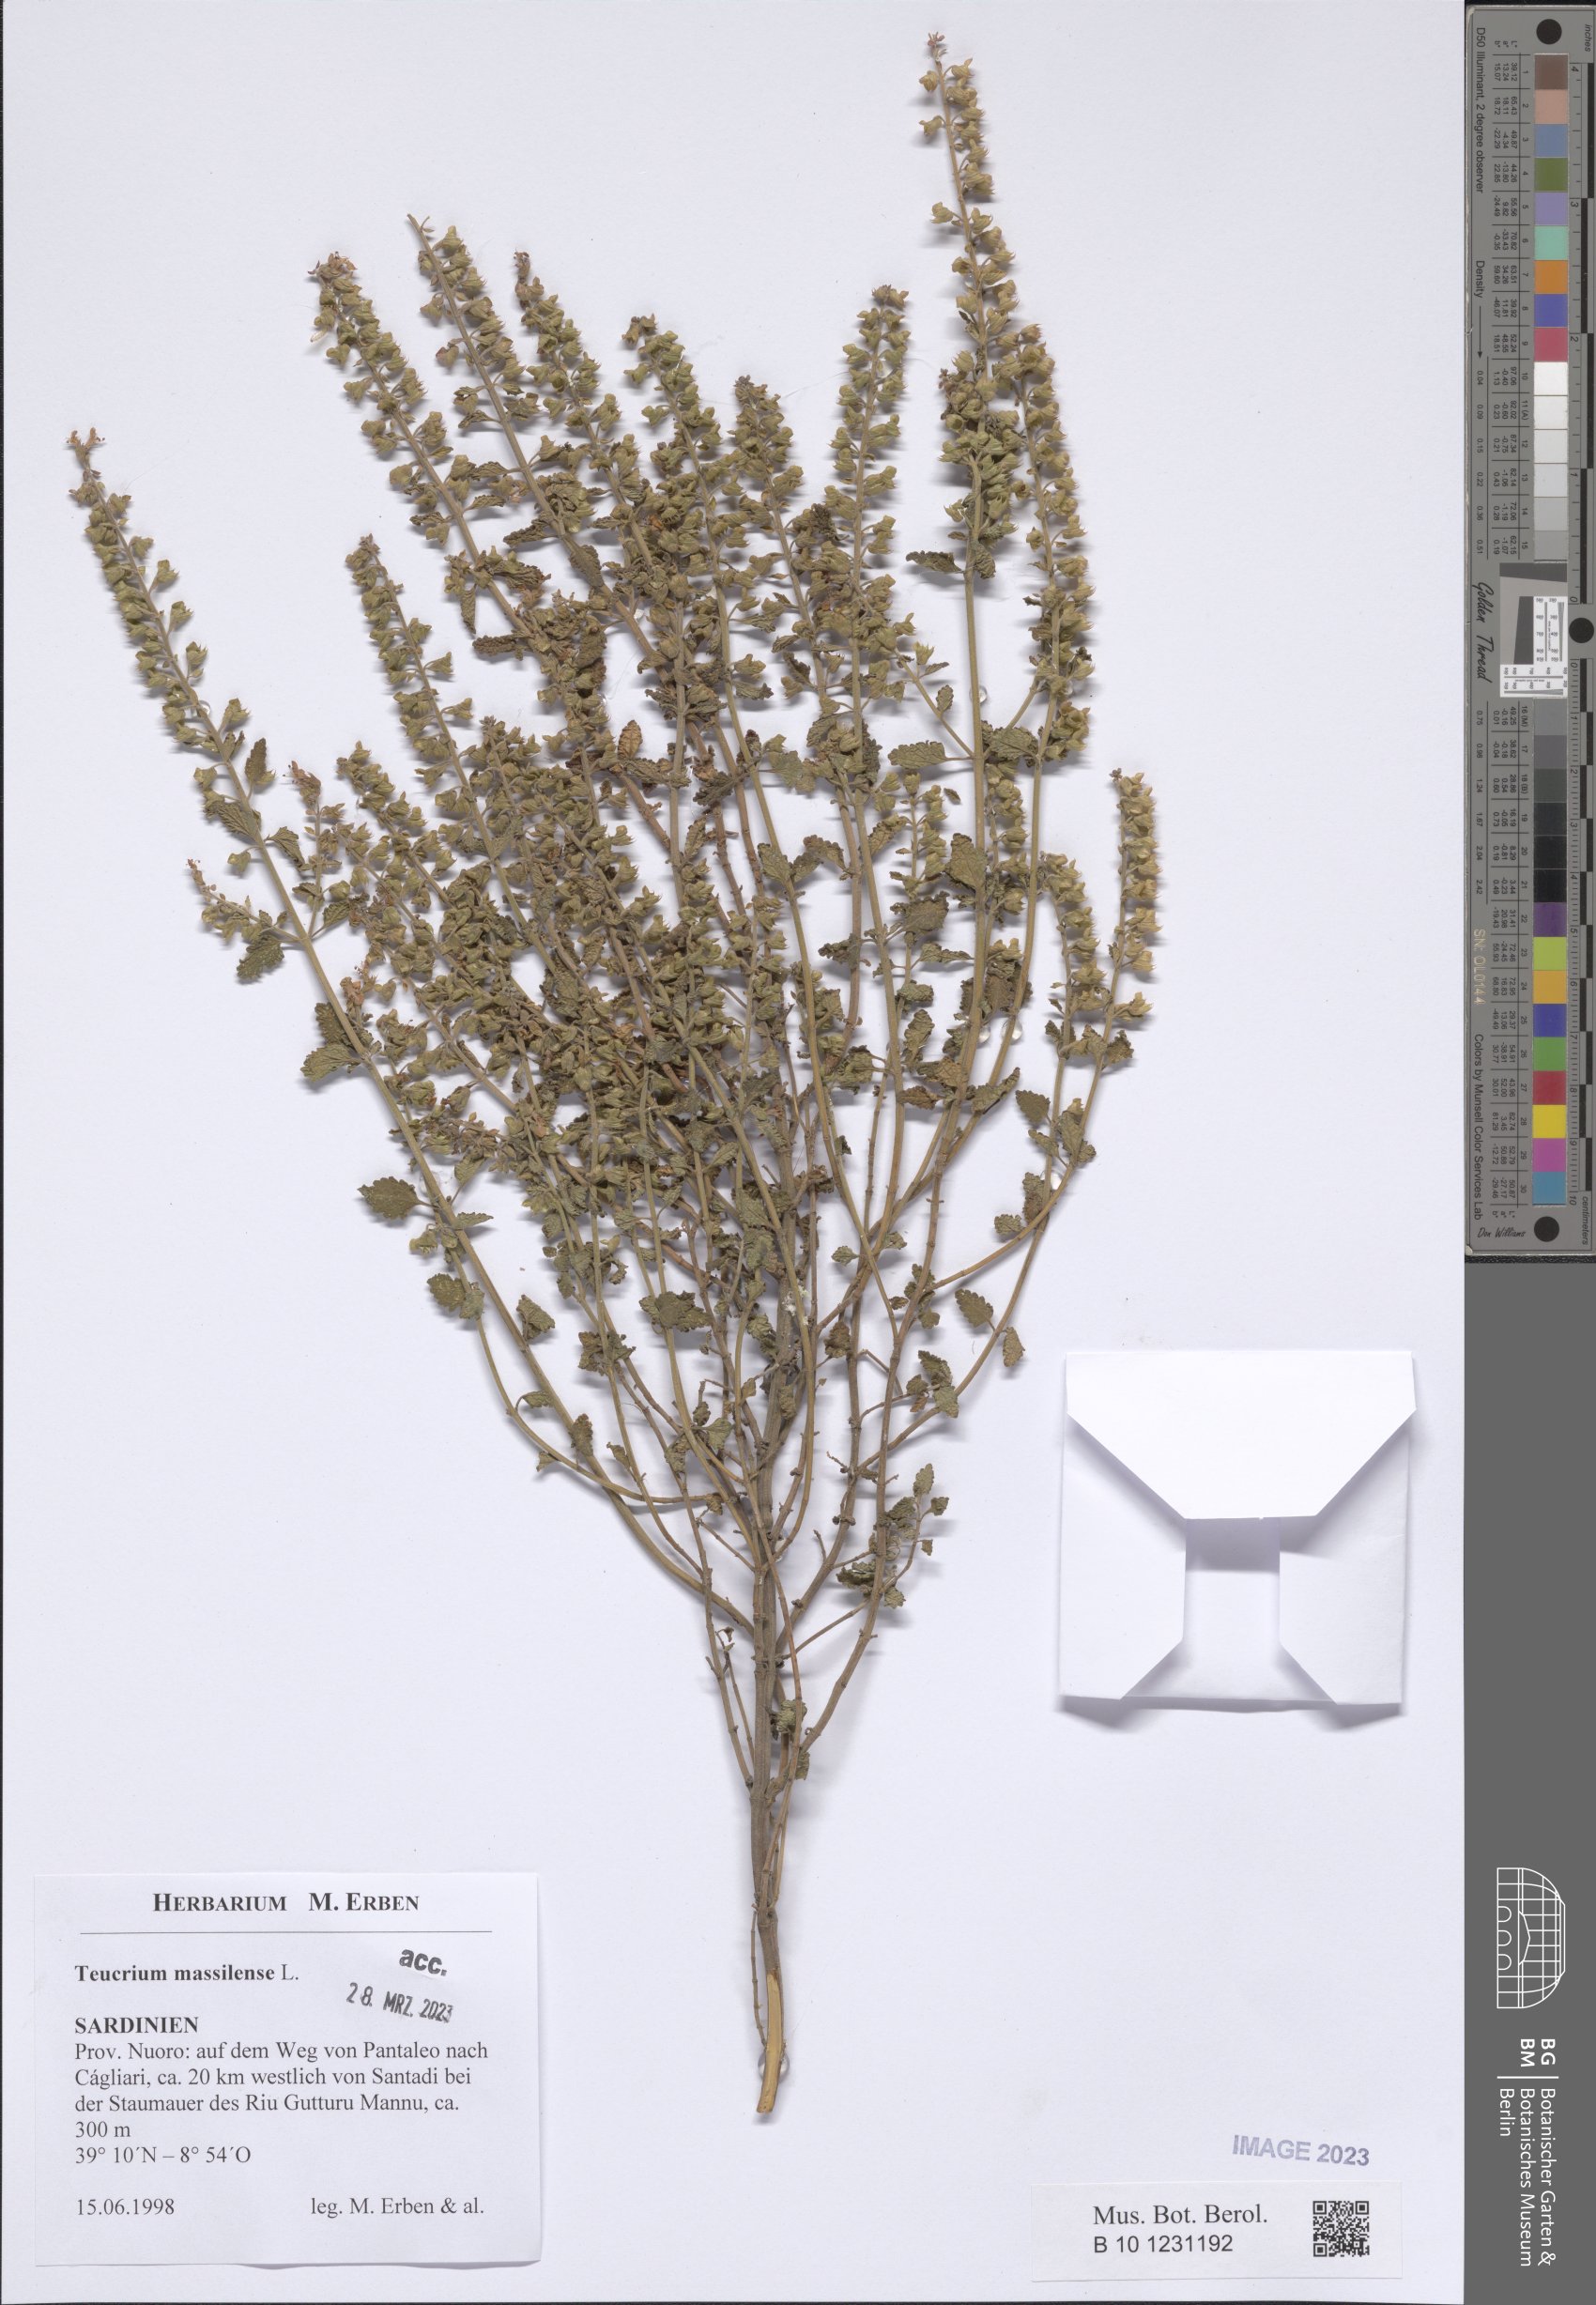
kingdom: Plantae
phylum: Tracheophyta
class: Magnoliopsida
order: Lamiales
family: Lamiaceae
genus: Teucrium
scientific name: Teucrium massiliense
